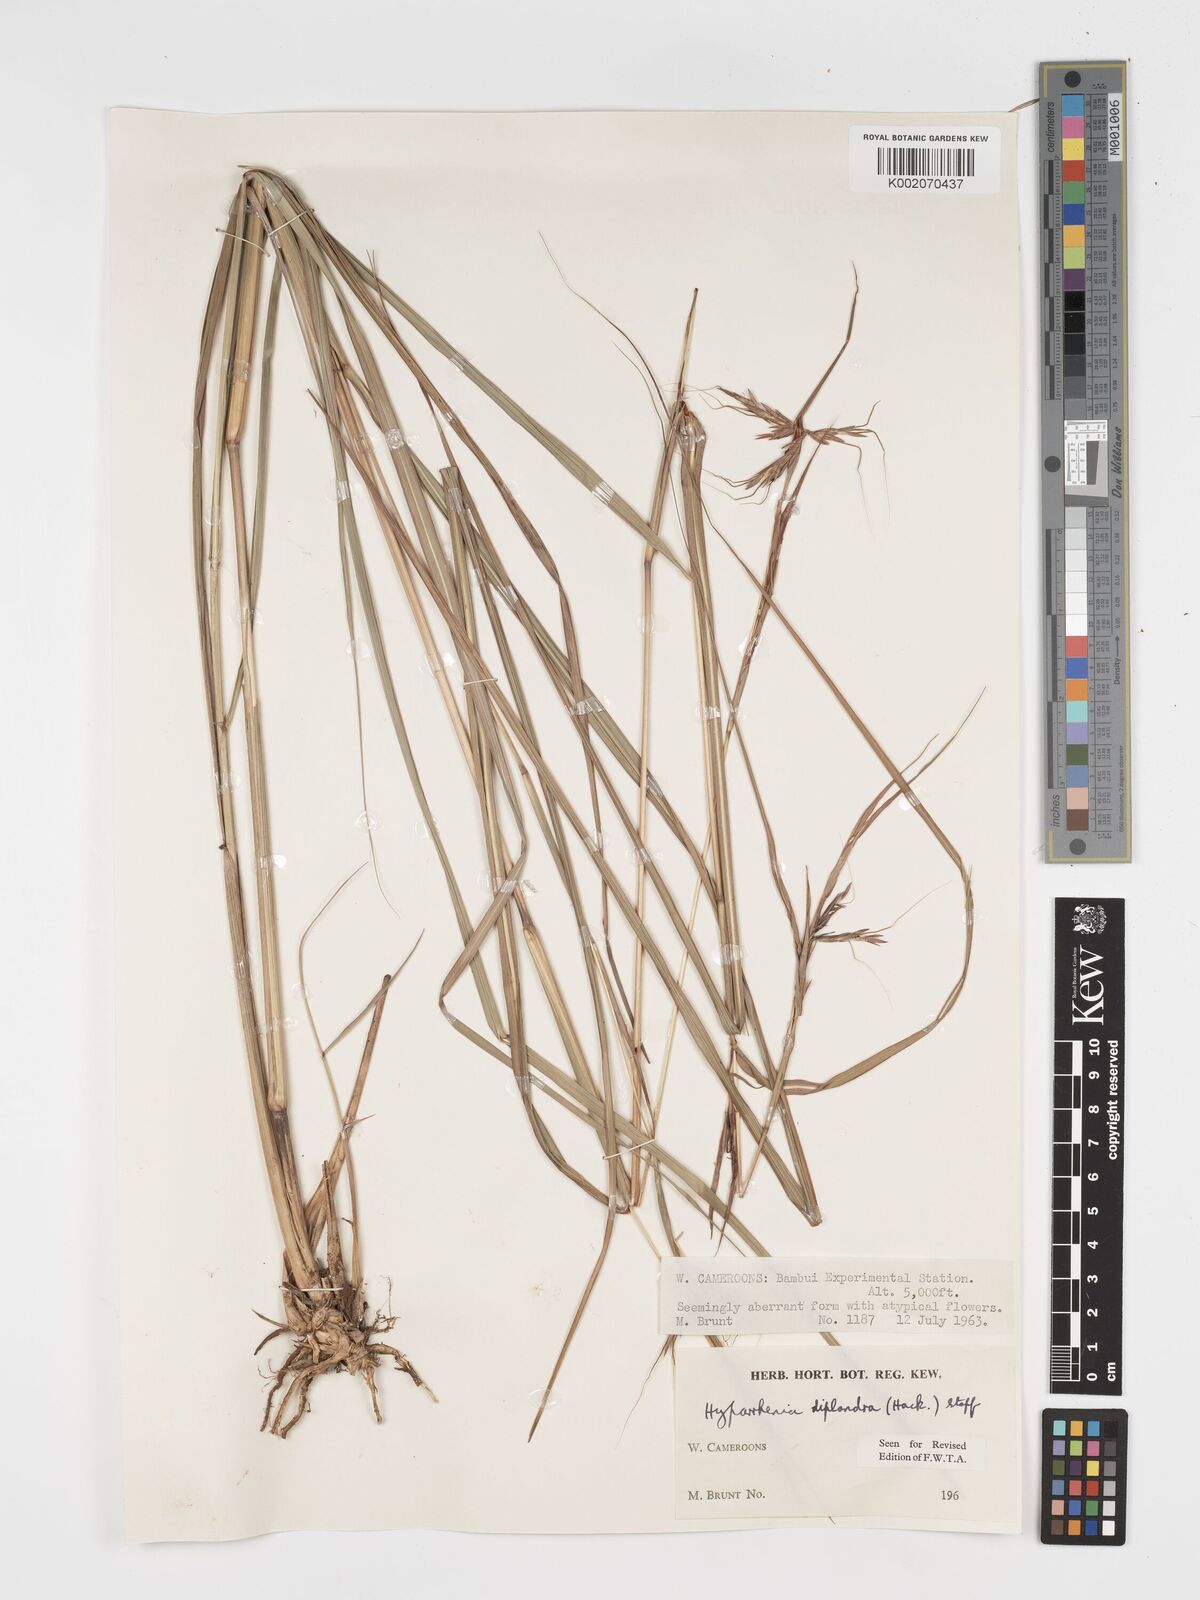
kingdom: Plantae
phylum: Tracheophyta
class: Liliopsida
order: Poales
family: Poaceae
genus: Hyparrhenia
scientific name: Hyparrhenia diplandra
